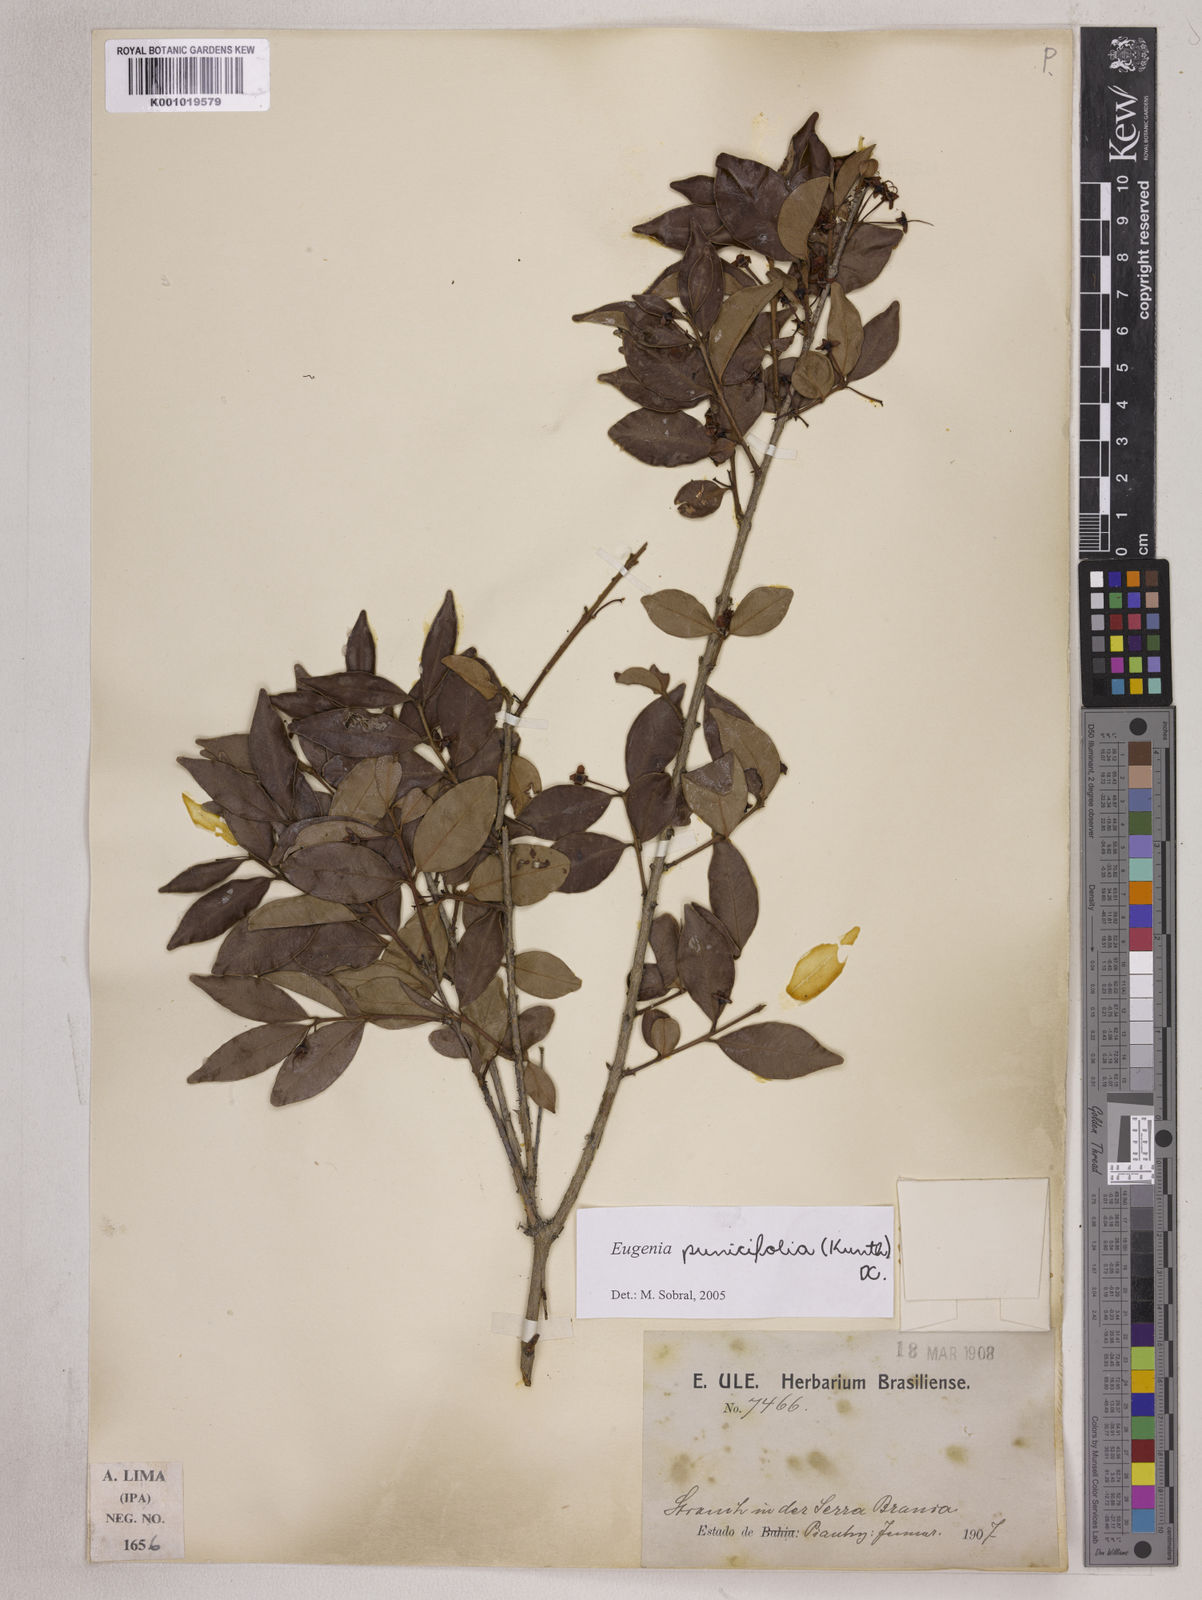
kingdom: Plantae
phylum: Tracheophyta
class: Magnoliopsida
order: Myrtales
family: Myrtaceae
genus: Eugenia
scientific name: Eugenia punicifolia
